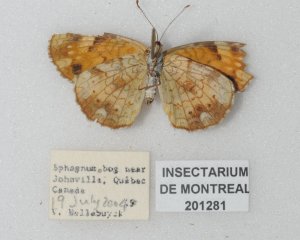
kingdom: Animalia
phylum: Arthropoda
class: Insecta
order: Lepidoptera
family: Nymphalidae
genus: Phyciodes
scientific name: Phyciodes tharos
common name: Northern Crescent
